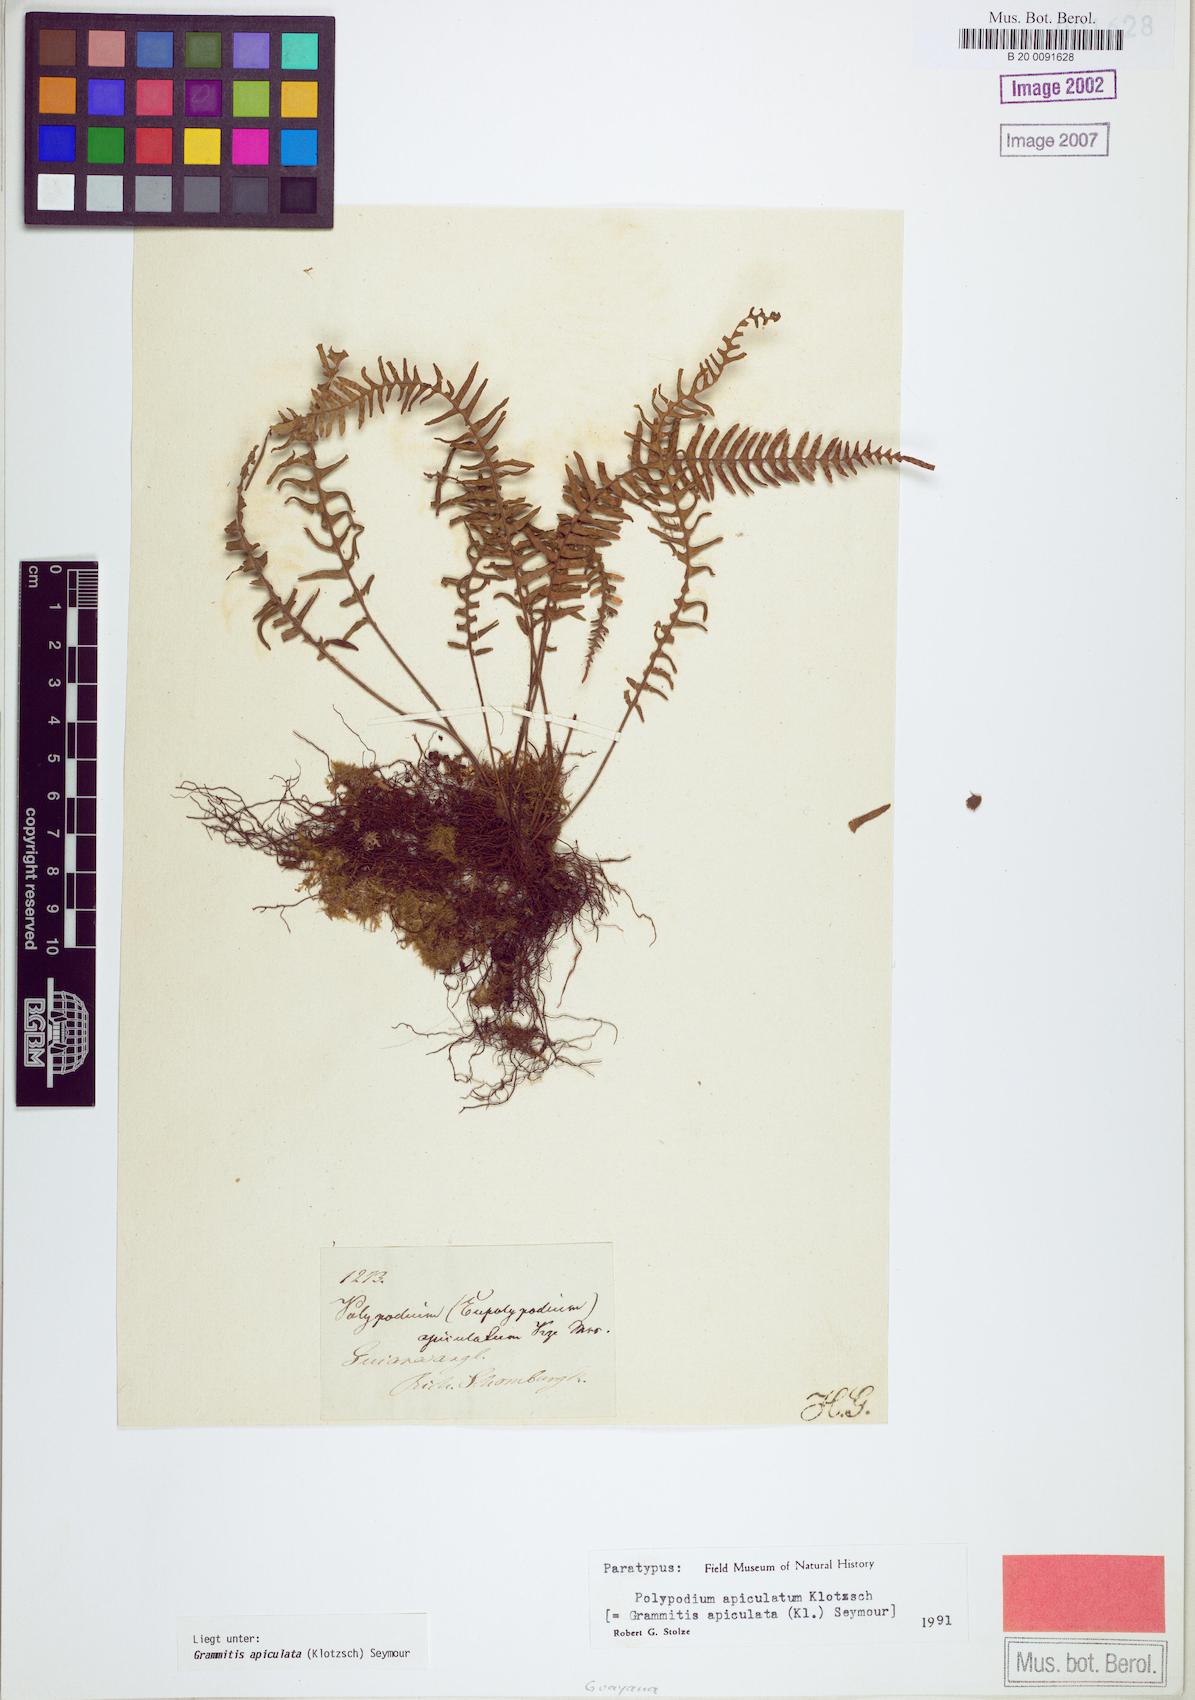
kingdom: Plantae
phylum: Tracheophyta
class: Polypodiopsida
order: Polypodiales
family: Polypodiaceae
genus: Lellingeria
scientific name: Lellingeria apiculata
